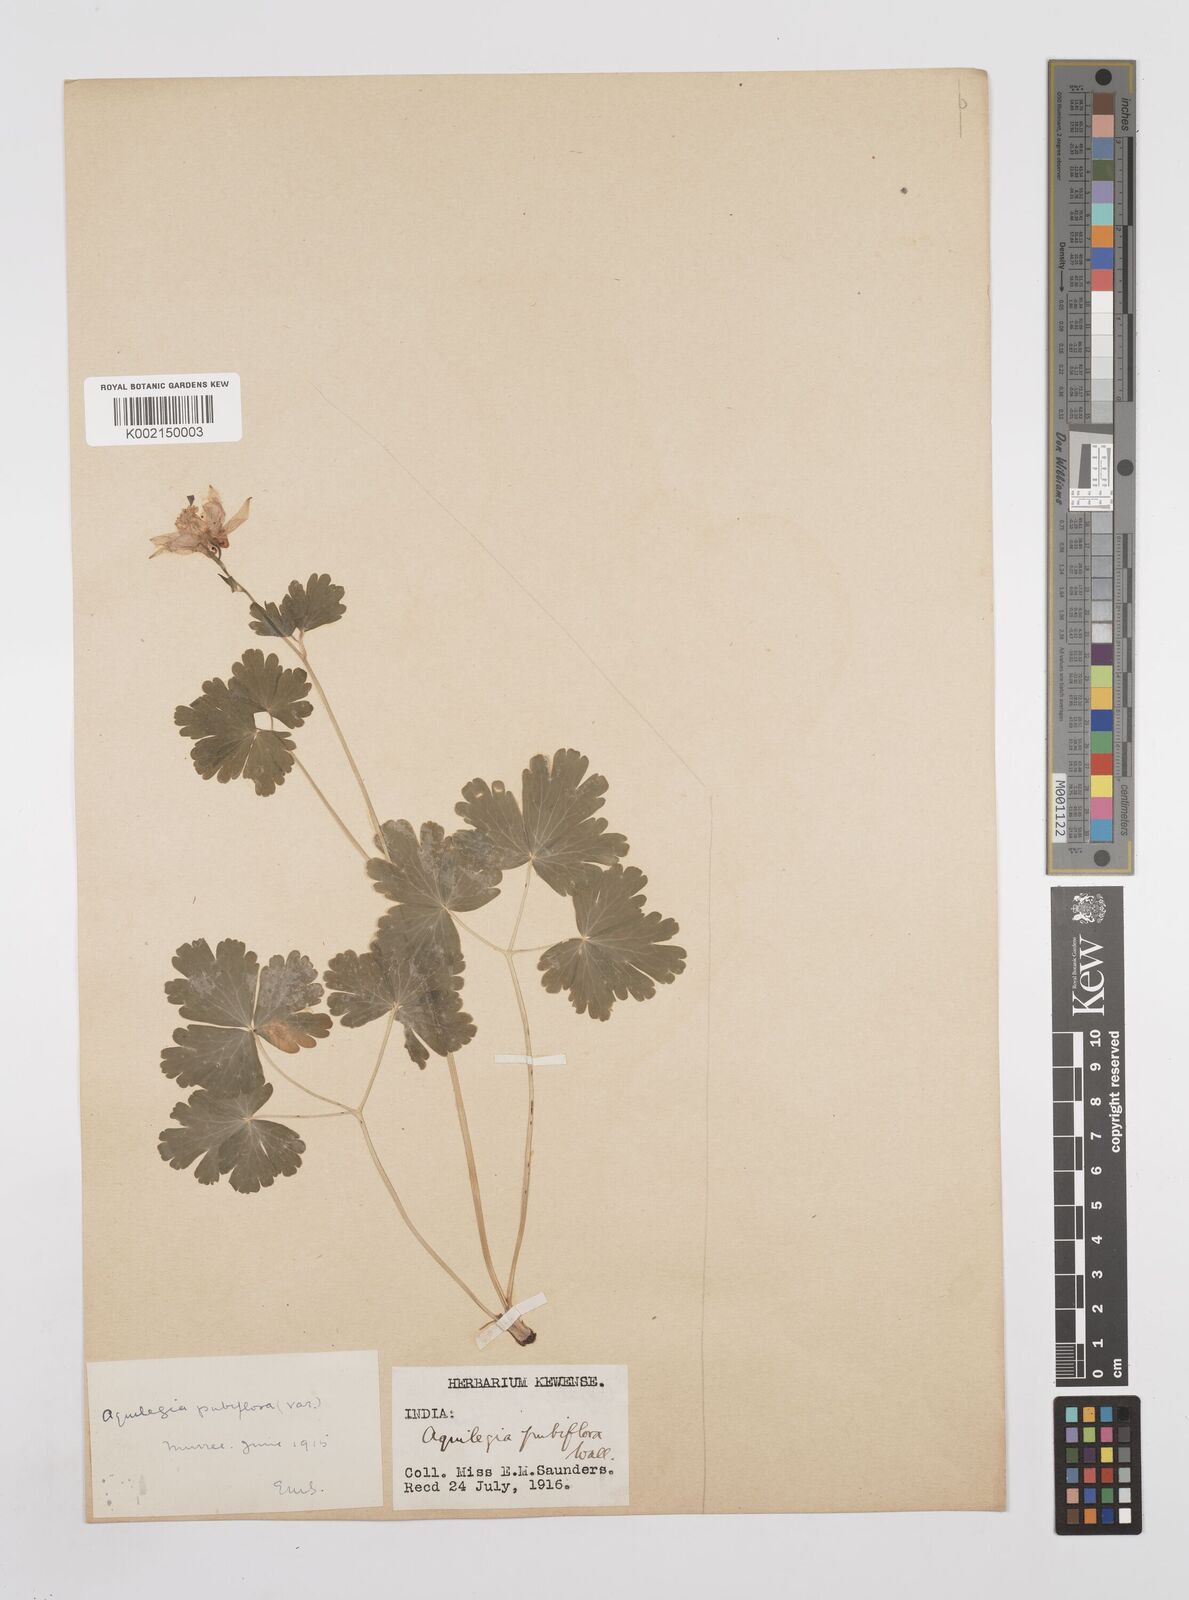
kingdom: Plantae
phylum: Tracheophyta
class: Magnoliopsida
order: Ranunculales
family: Ranunculaceae
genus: Aquilegia
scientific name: Aquilegia pubiflora
